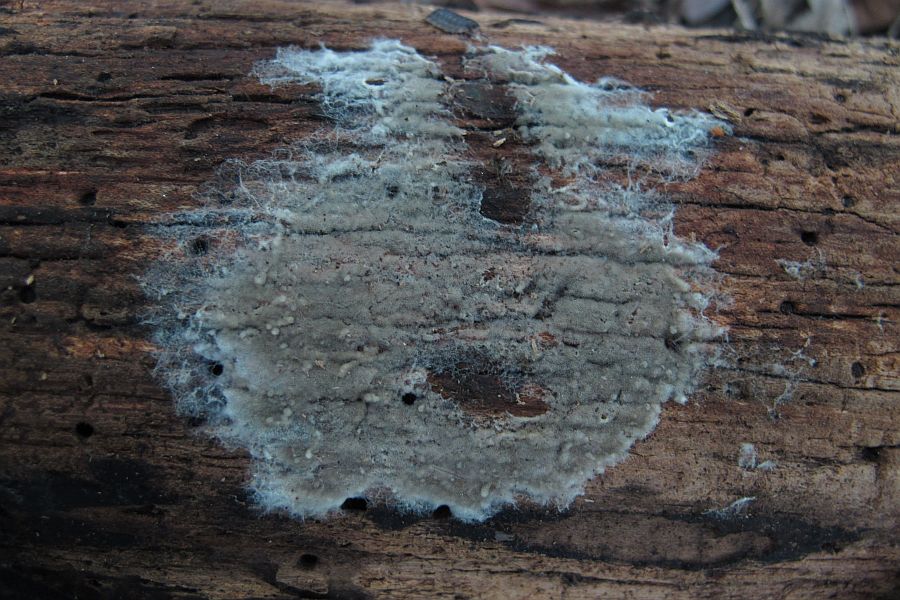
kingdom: Fungi
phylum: Basidiomycota
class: Agaricomycetes
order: Cantharellales
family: Botryobasidiaceae
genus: Botryobasidium
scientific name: Botryobasidium conspersum
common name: olivengrå spindhinde
